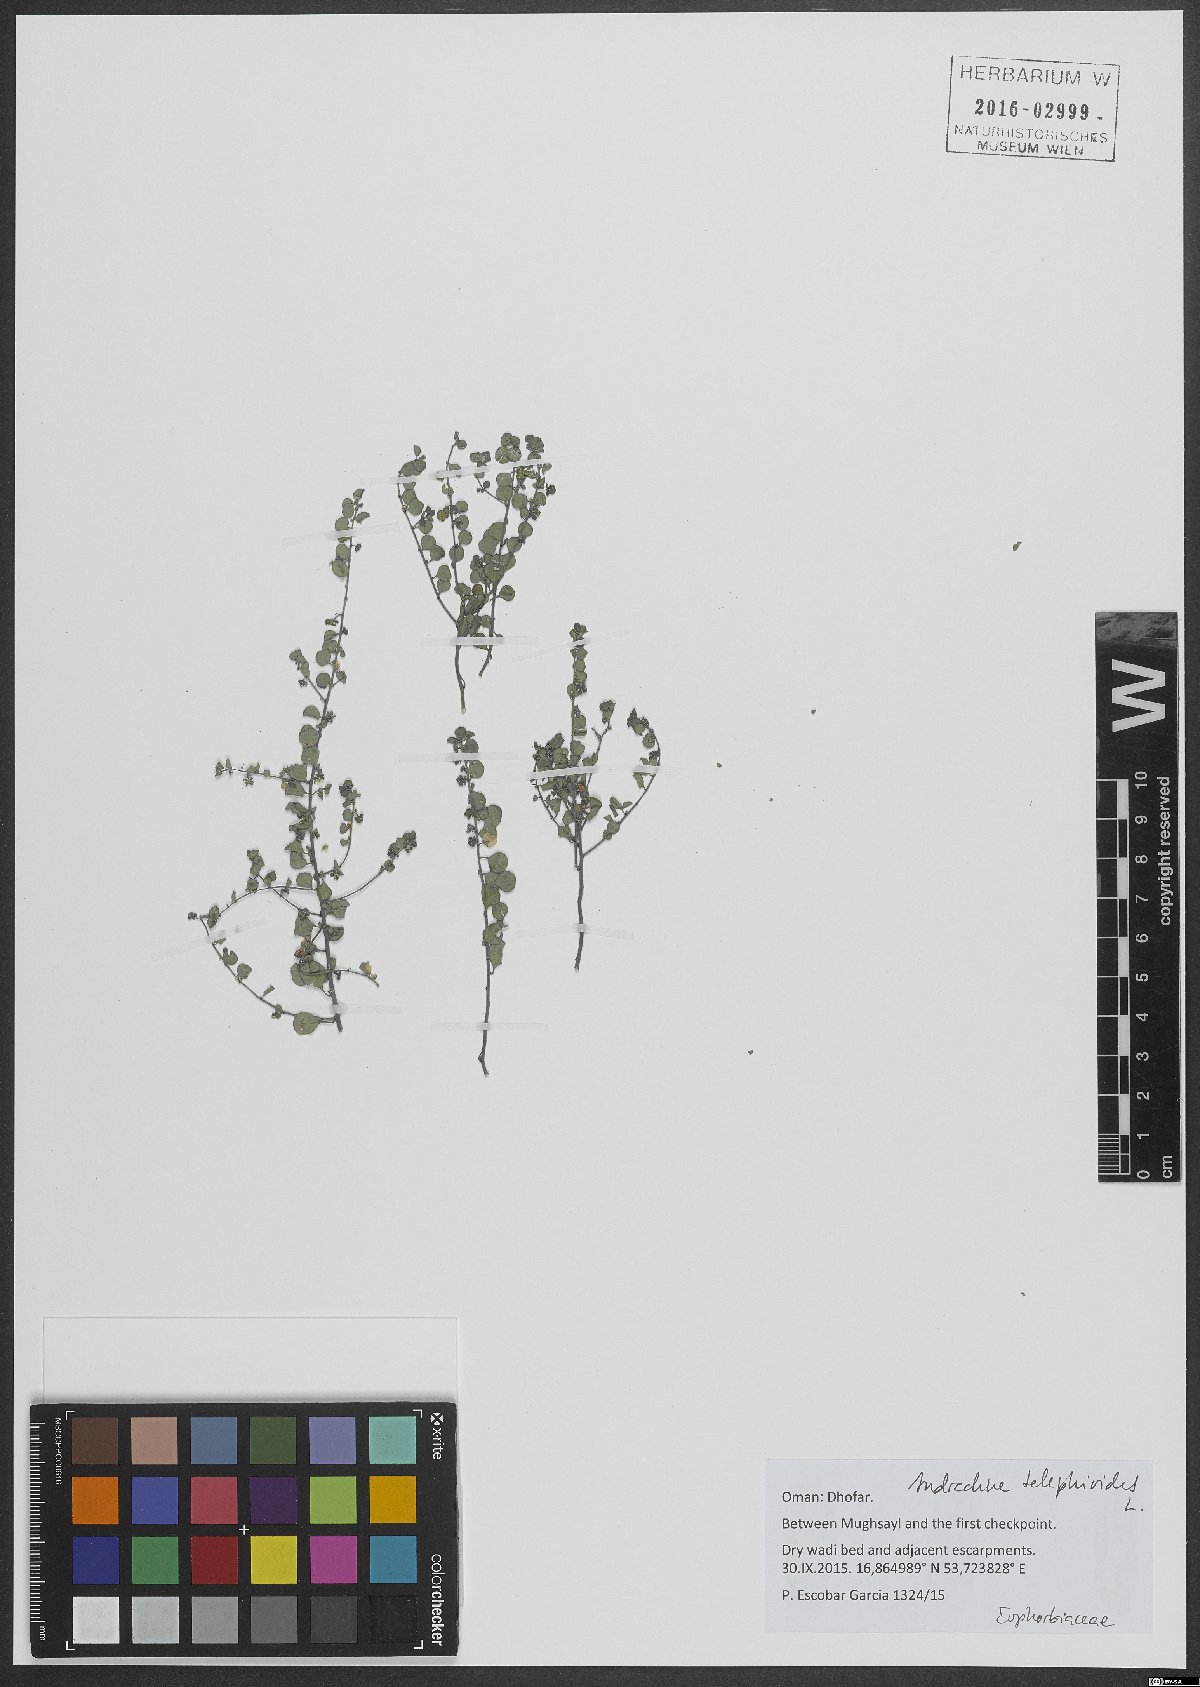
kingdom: Plantae
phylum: Tracheophyta
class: Magnoliopsida
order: Malpighiales
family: Phyllanthaceae
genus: Andrachne
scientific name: Andrachne telephioides
